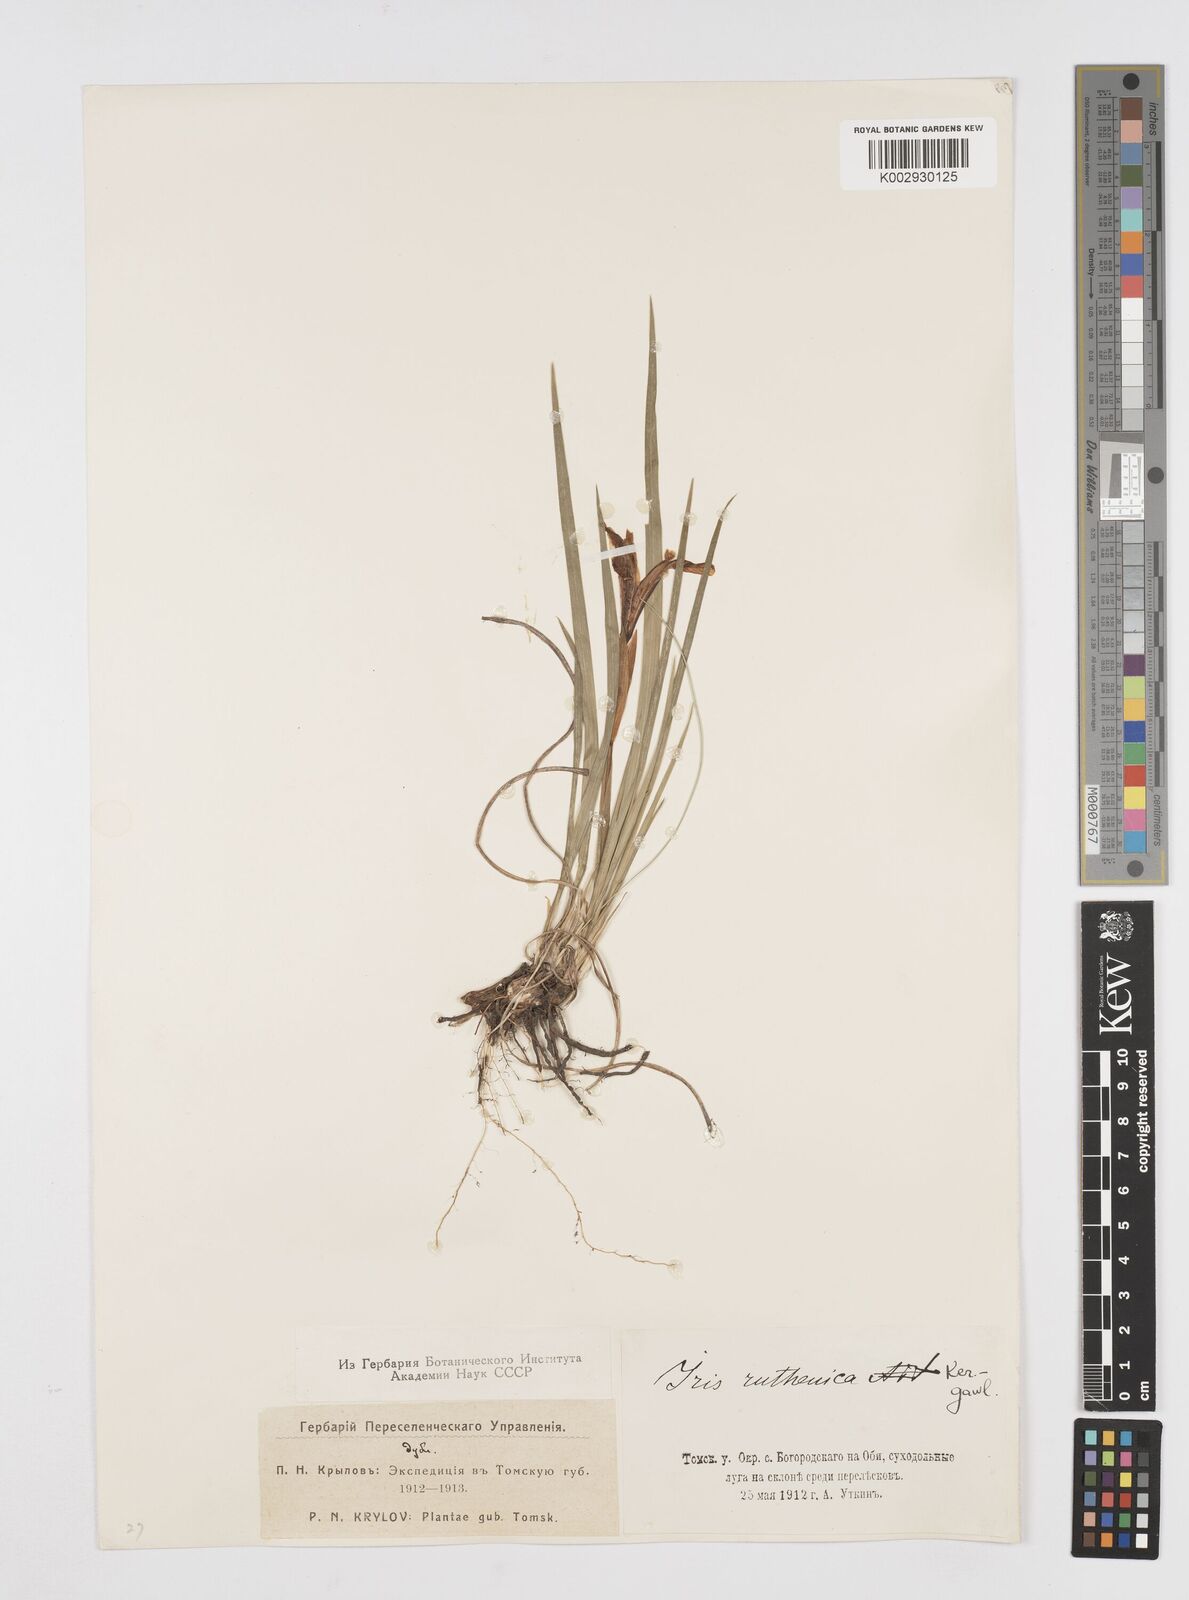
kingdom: Plantae
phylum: Tracheophyta
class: Liliopsida
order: Asparagales
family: Iridaceae
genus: Iris
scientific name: Iris ruthenica
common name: Purple-bract iris
